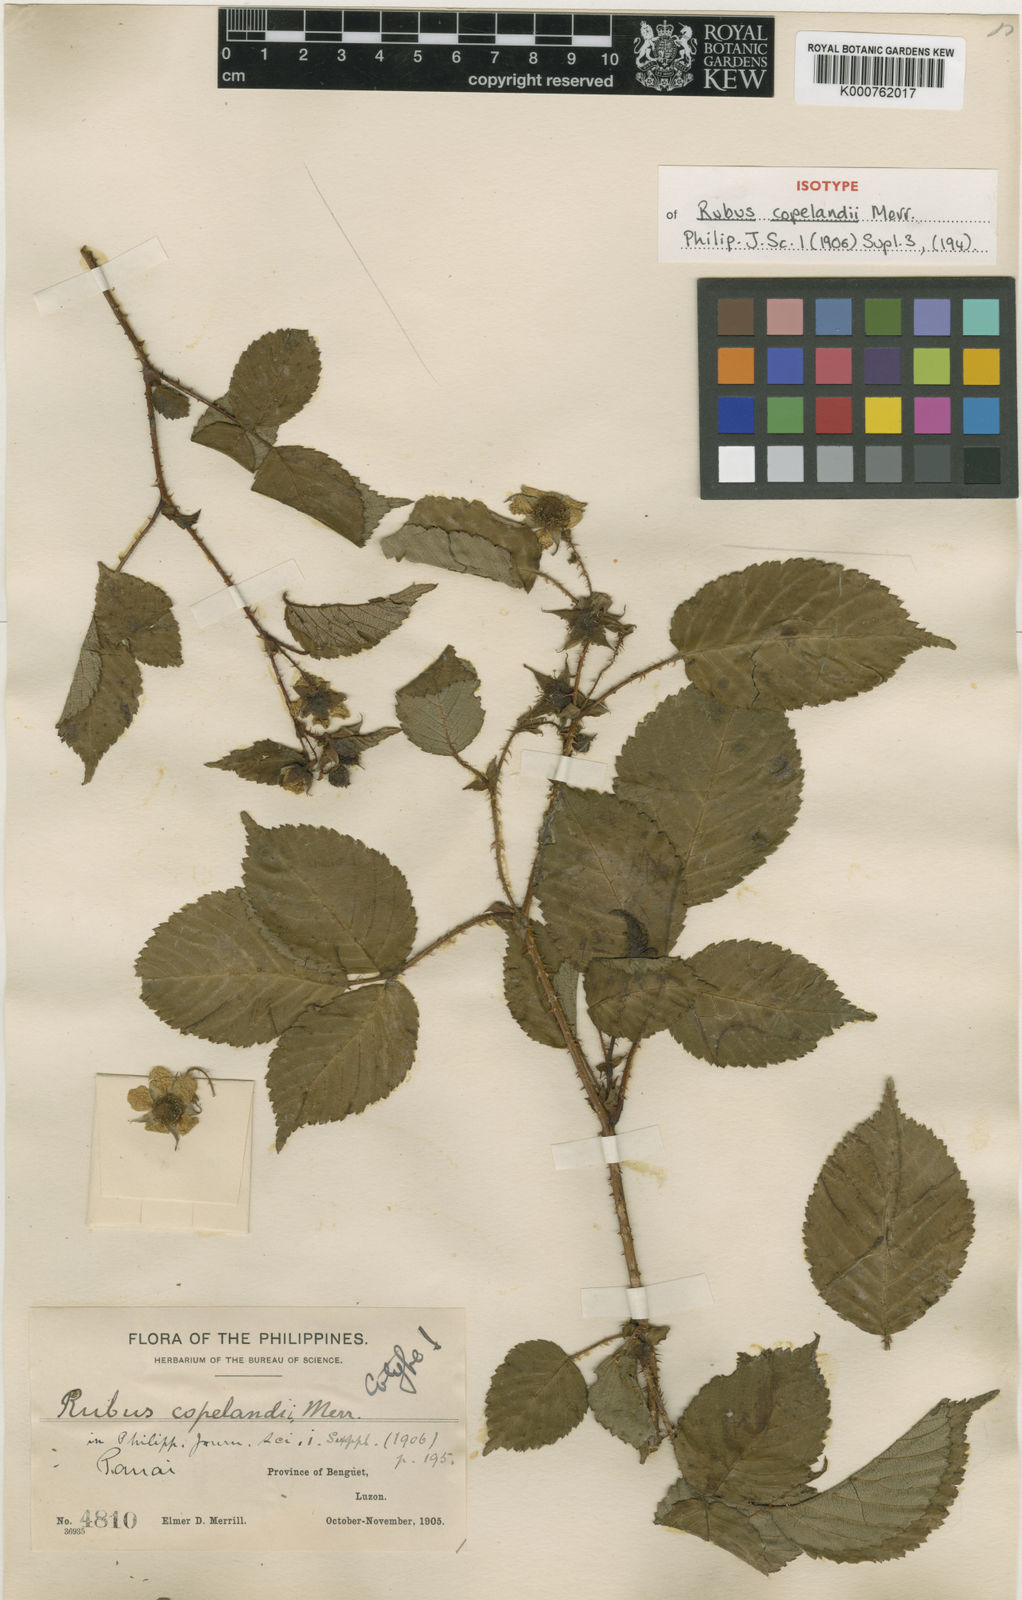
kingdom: Plantae
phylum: Tracheophyta
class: Magnoliopsida
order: Rosales
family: Rosaceae
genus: Rubus
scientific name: Rubus copelandii
